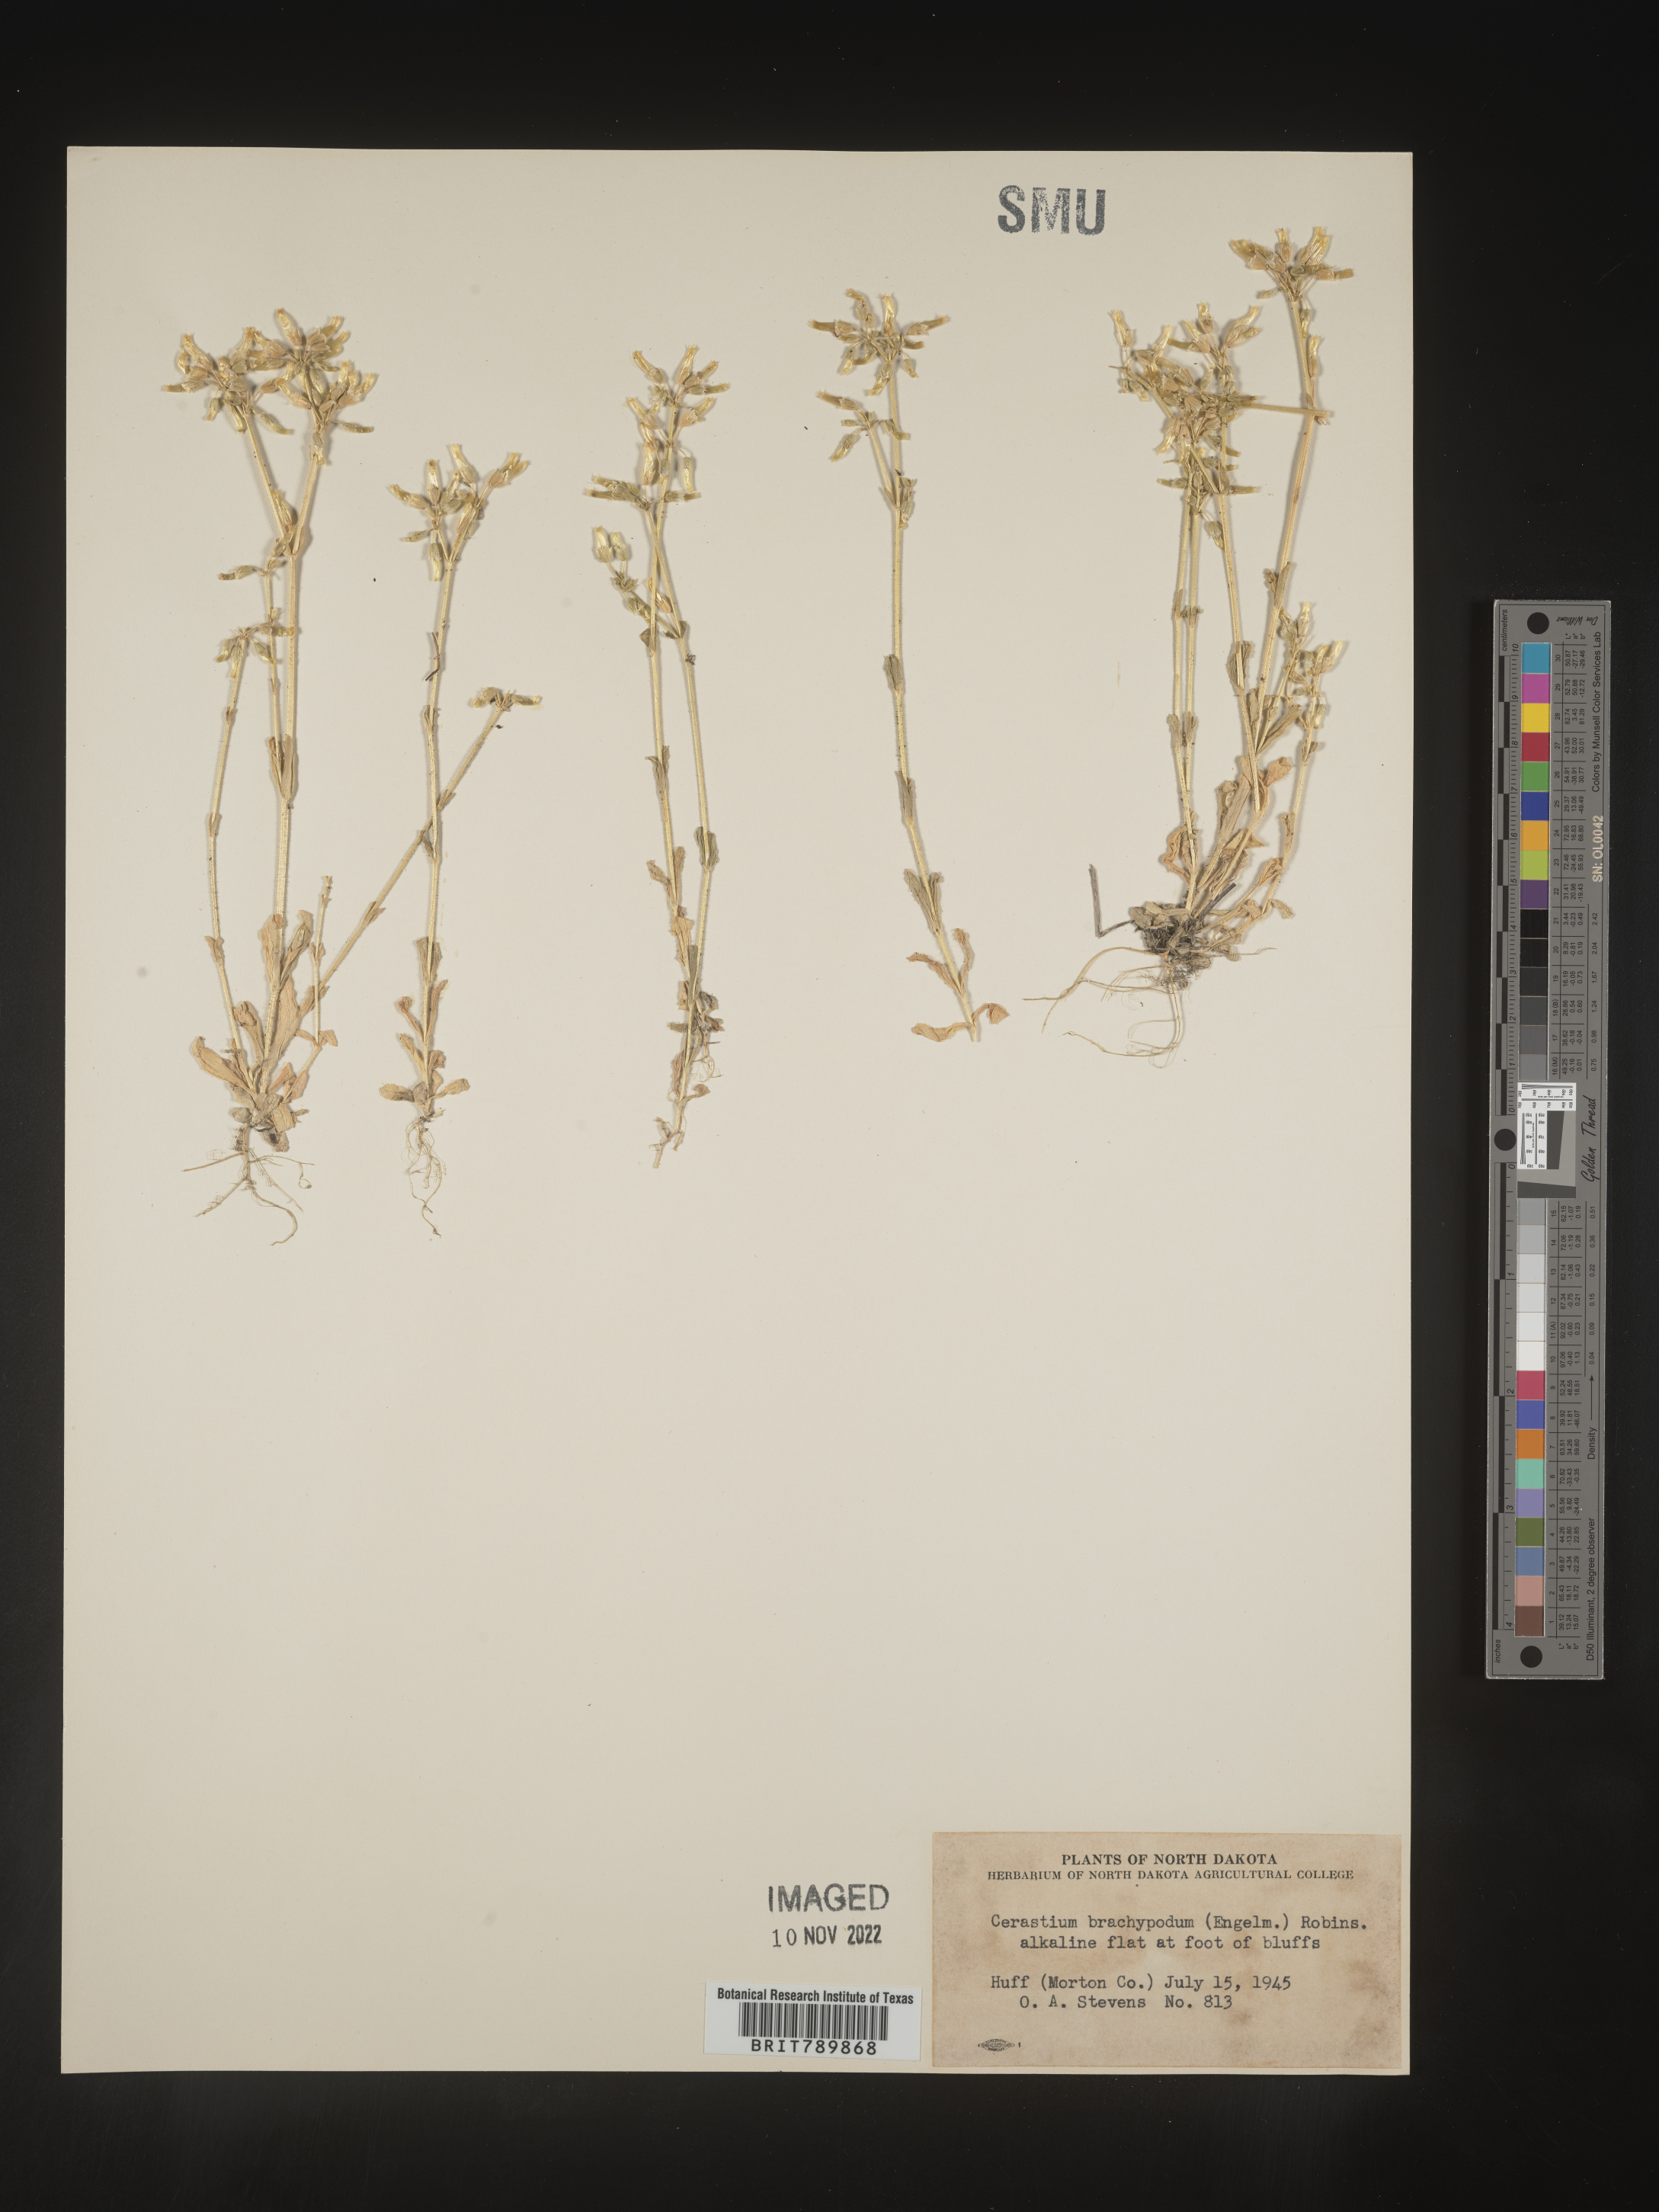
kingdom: Plantae
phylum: Tracheophyta
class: Magnoliopsida
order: Caryophyllales
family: Caryophyllaceae
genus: Cerastium
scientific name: Cerastium brachypodum
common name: Short-pedicelled nodding chickweed
